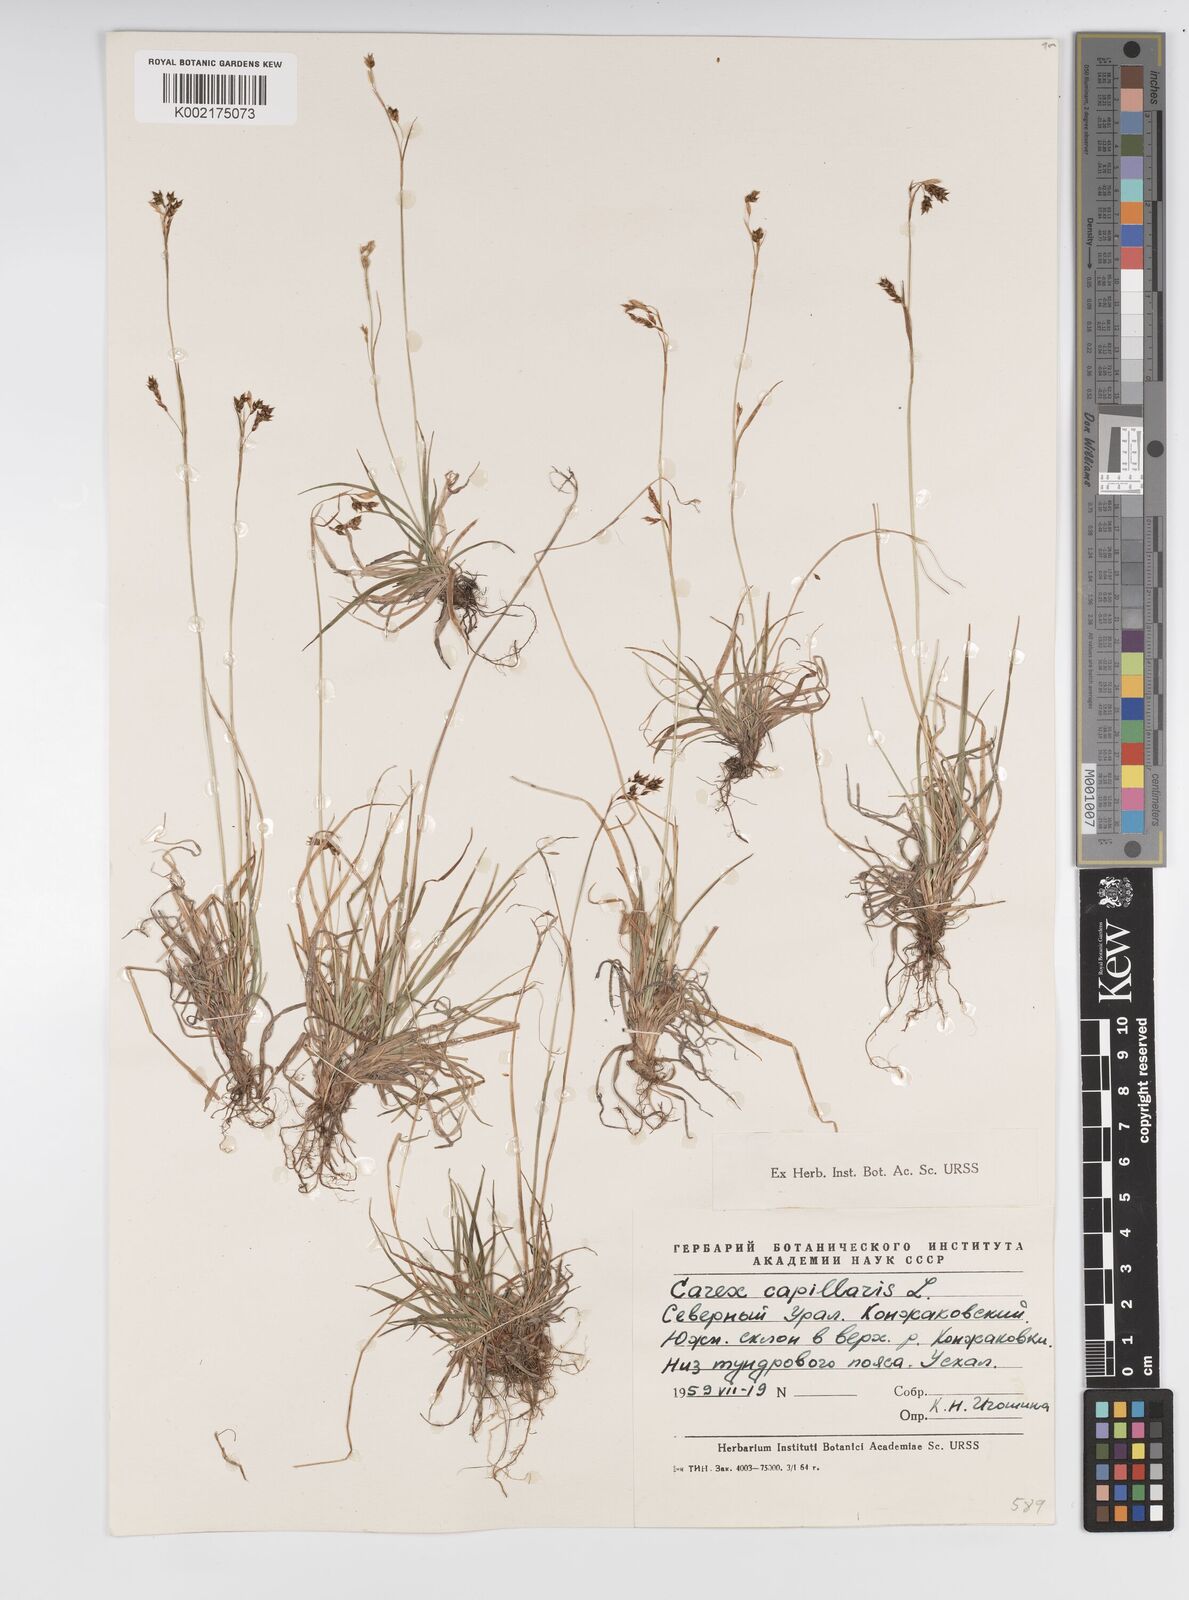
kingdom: Plantae
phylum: Tracheophyta
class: Liliopsida
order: Poales
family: Cyperaceae
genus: Carex
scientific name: Carex capillaris
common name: Hair sedge
